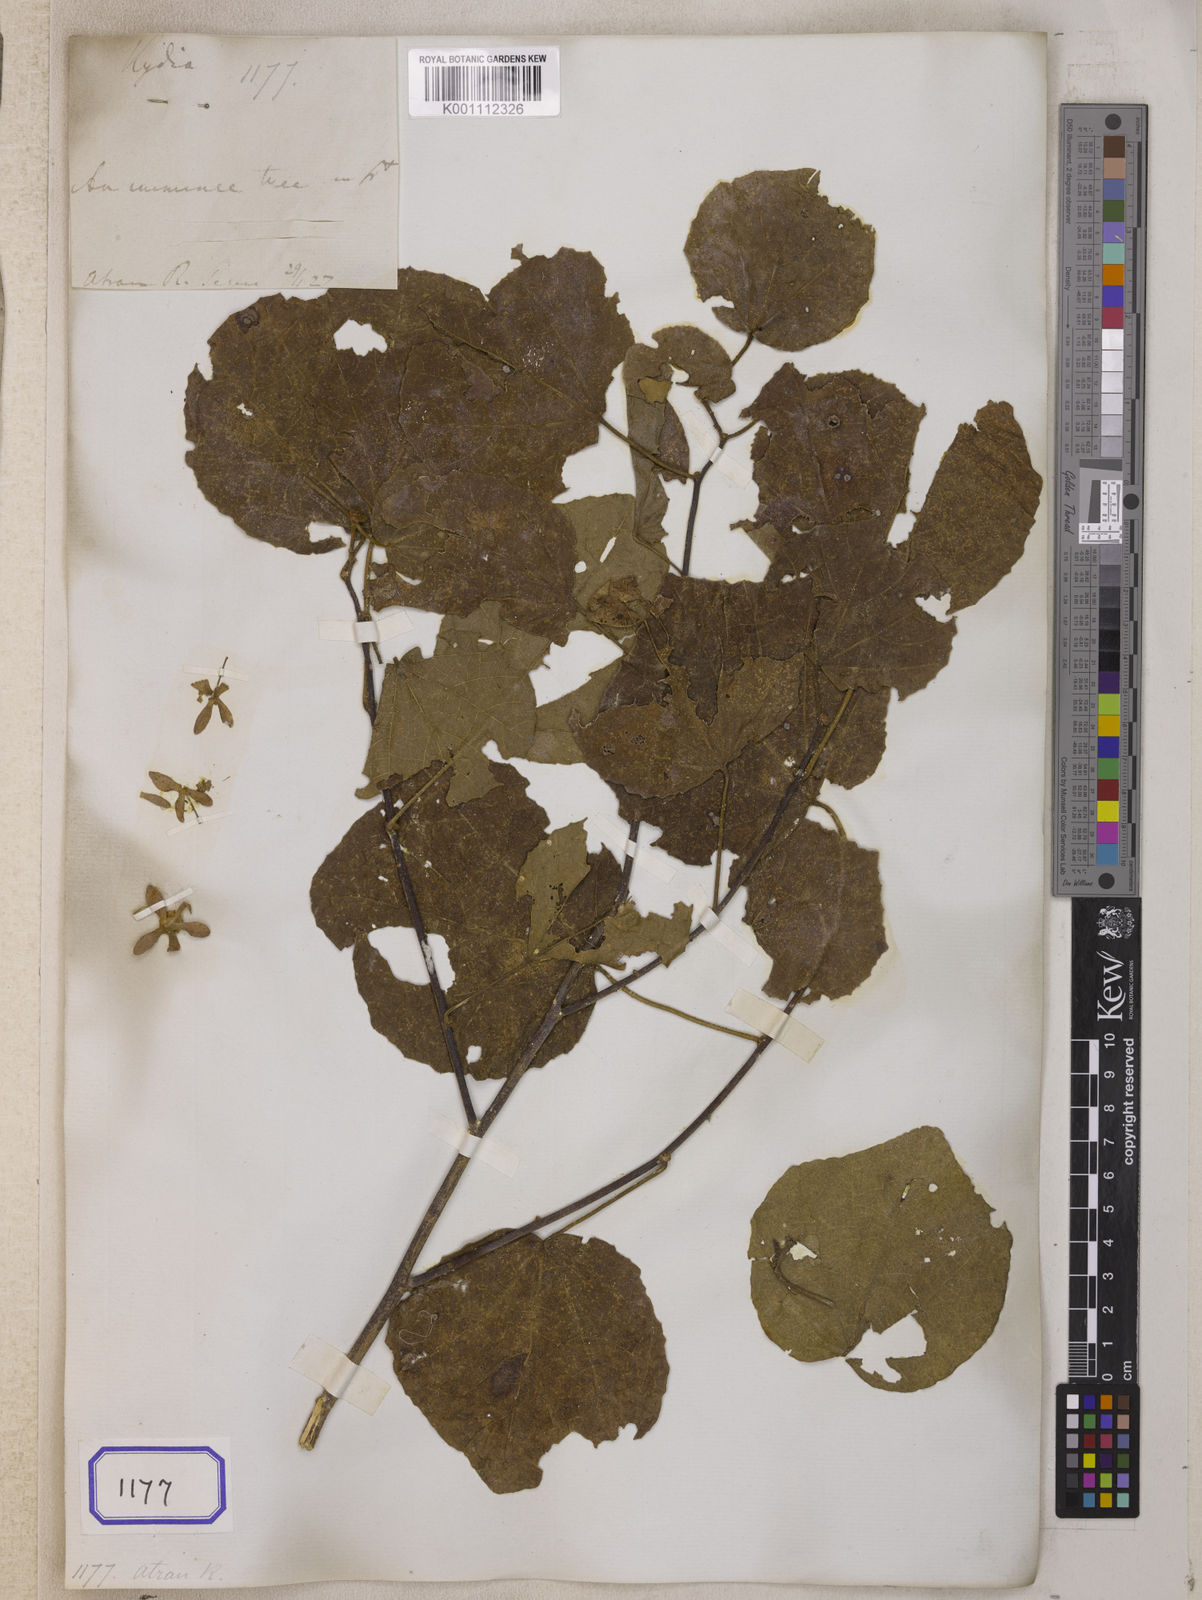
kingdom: Plantae
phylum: Tracheophyta
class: Magnoliopsida
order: Malvales
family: Malvaceae
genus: Kydia
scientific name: Kydia
